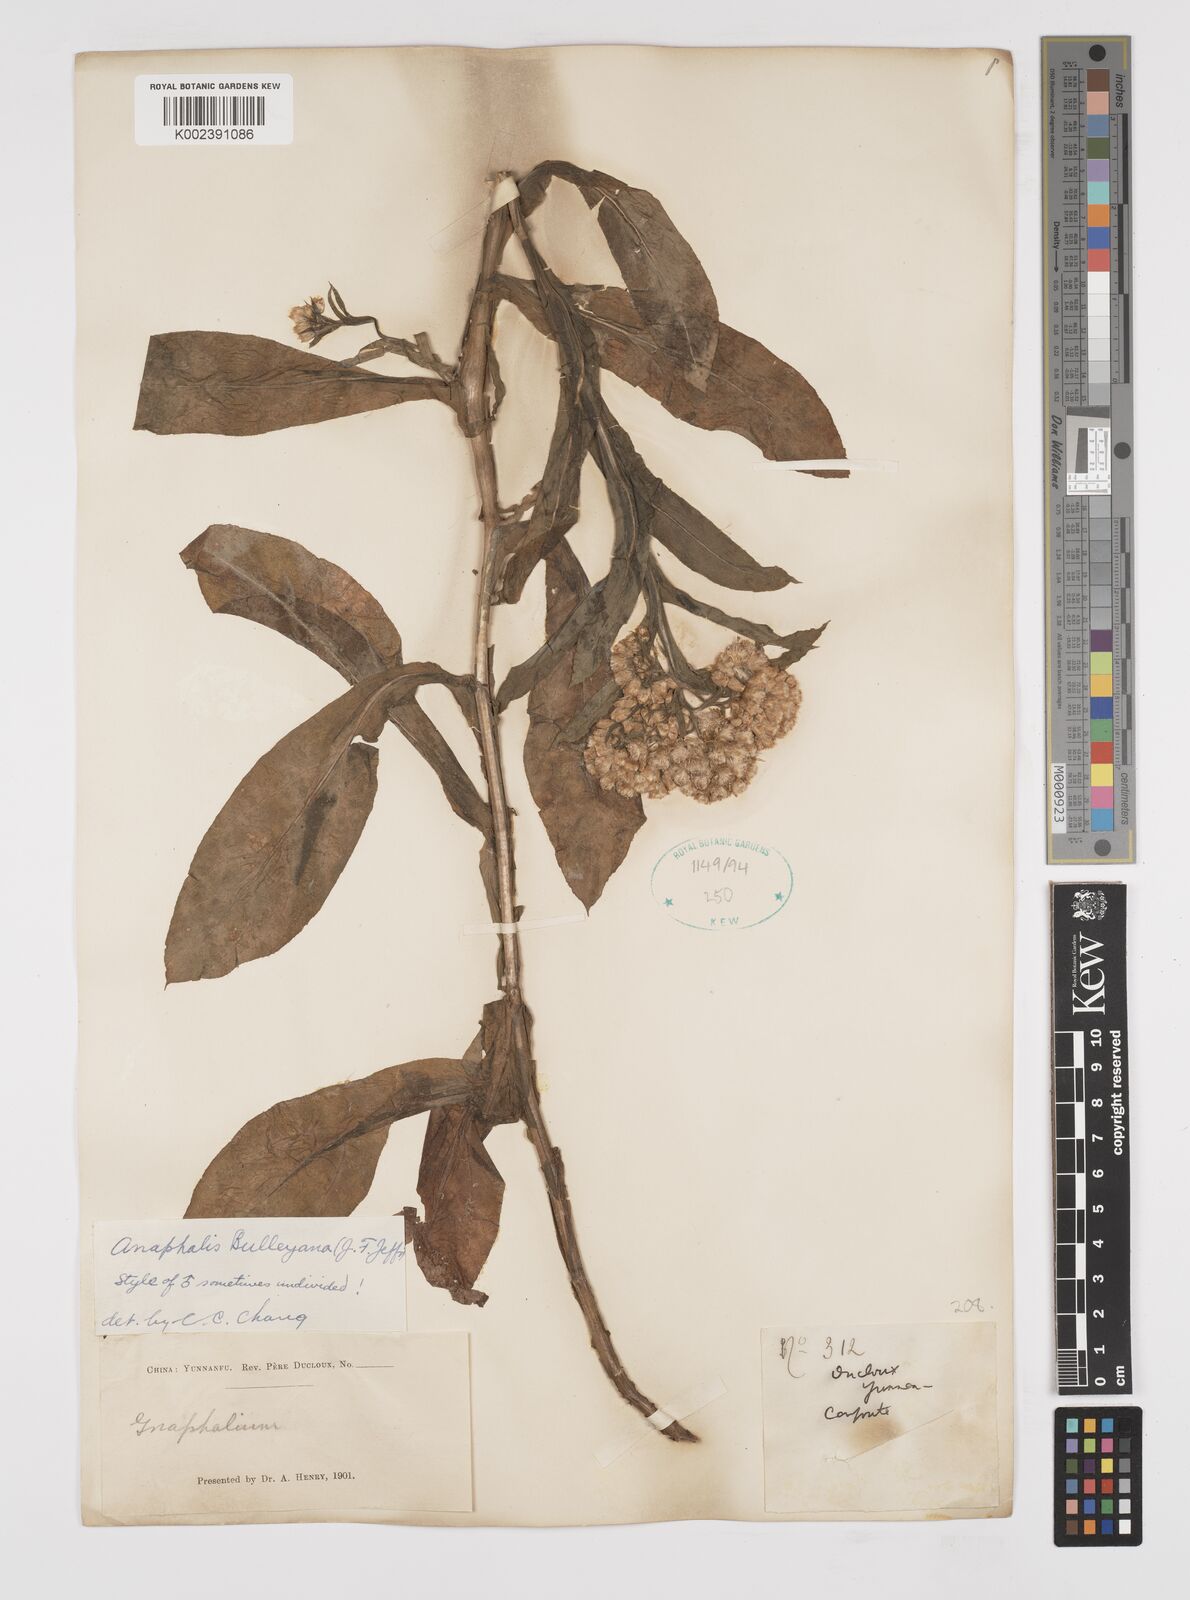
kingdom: Plantae
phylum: Tracheophyta
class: Magnoliopsida
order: Asterales
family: Asteraceae
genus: Anaphalis
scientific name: Anaphalis bulleyana
